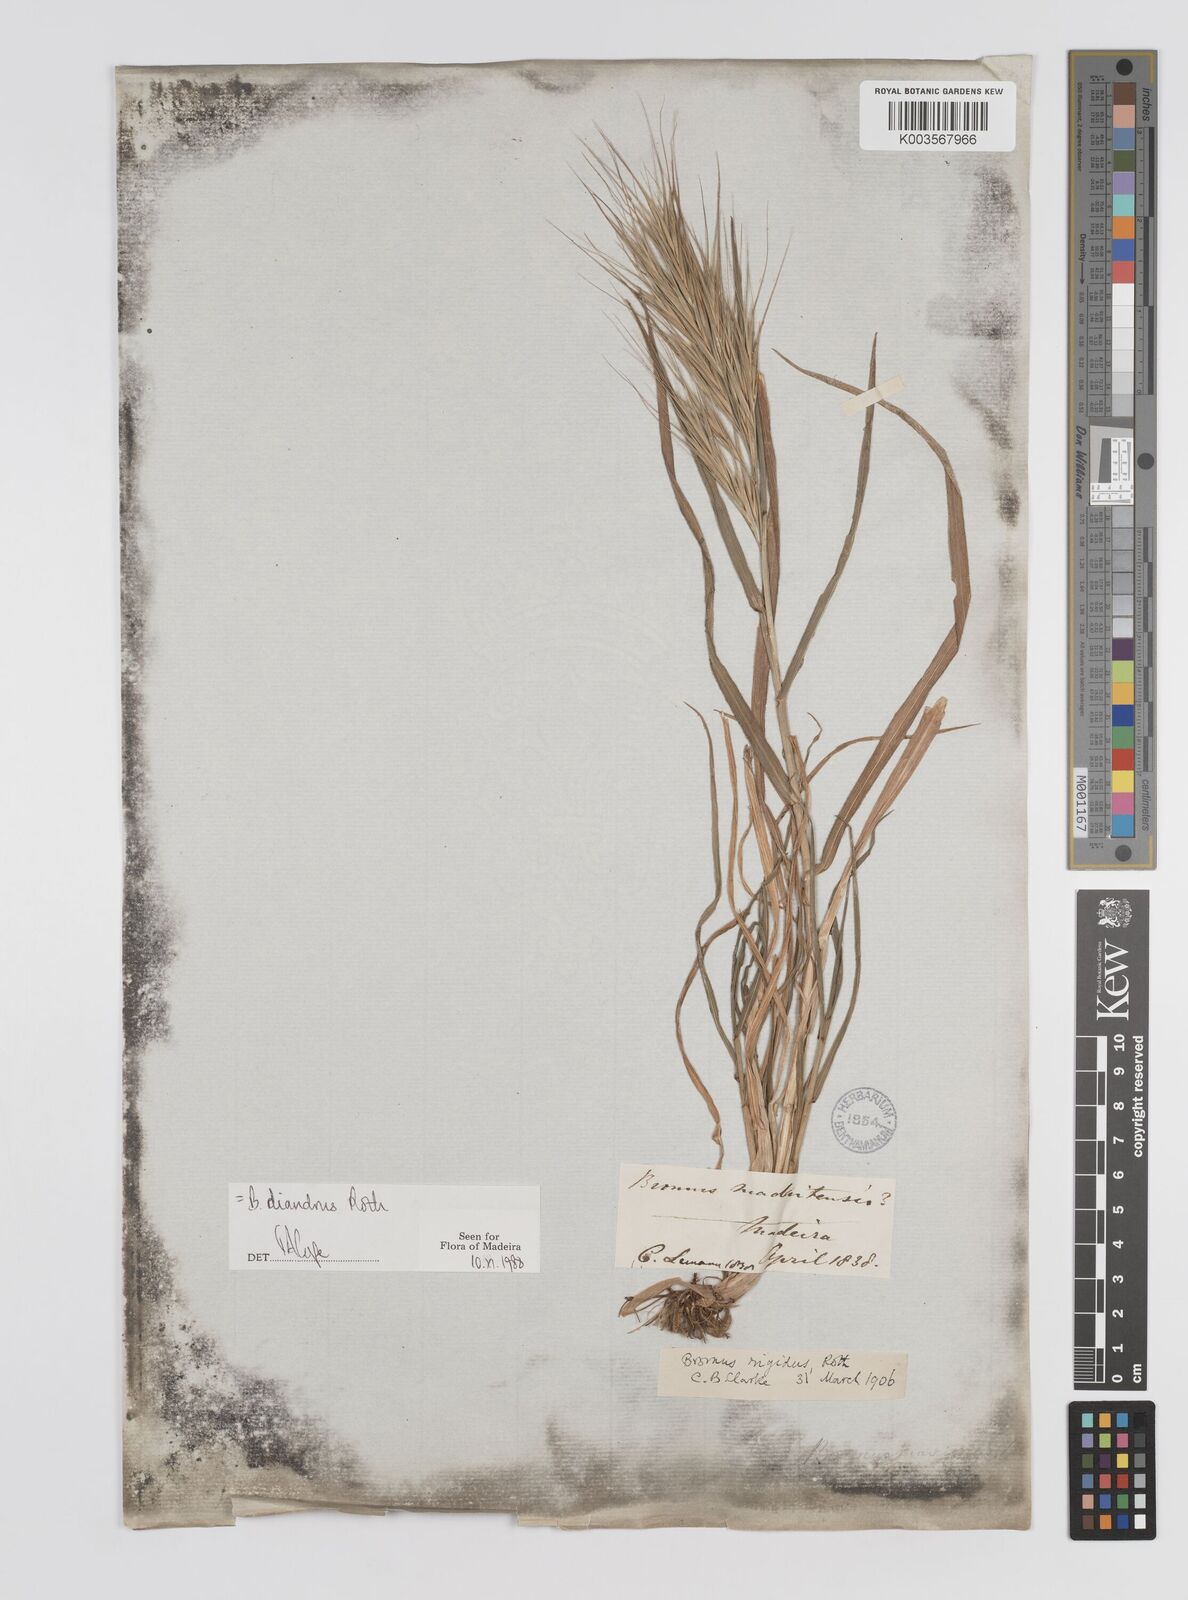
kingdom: Plantae
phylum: Tracheophyta
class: Liliopsida
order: Poales
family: Poaceae
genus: Bromus
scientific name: Bromus diandrus
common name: Ripgut brome
